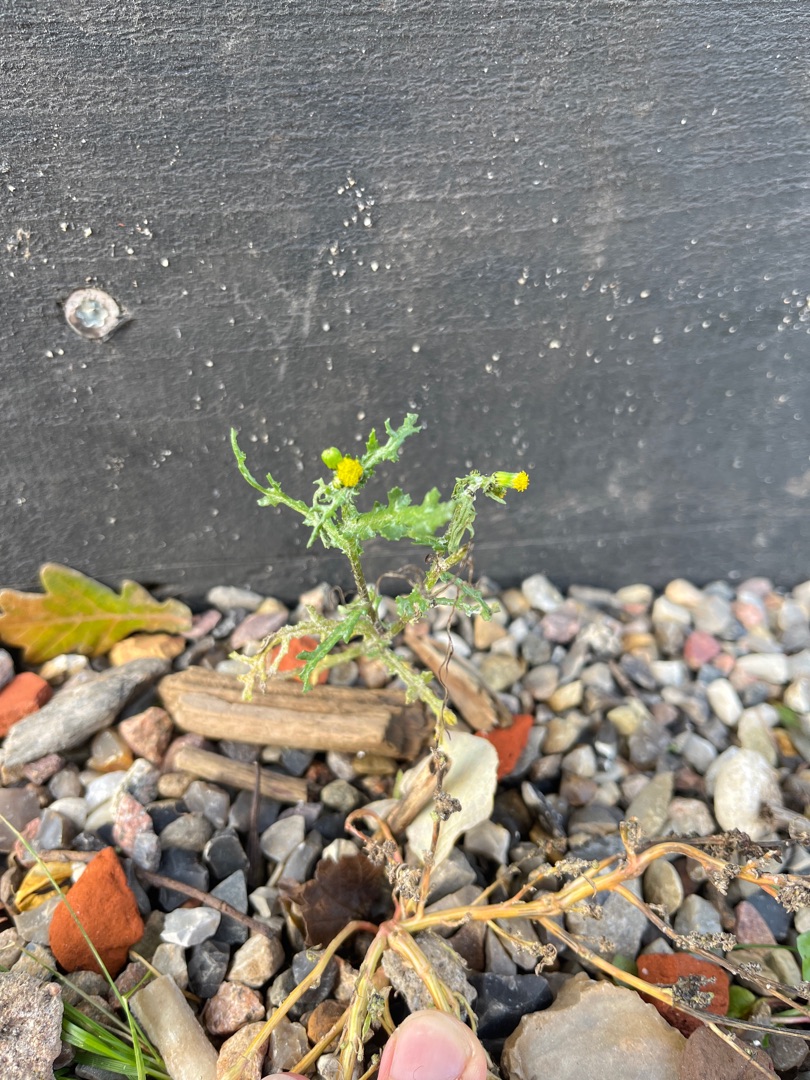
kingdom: Plantae
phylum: Tracheophyta
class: Magnoliopsida
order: Asterales
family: Asteraceae
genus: Senecio
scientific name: Senecio vulgaris
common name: Almindelig brandbæger
